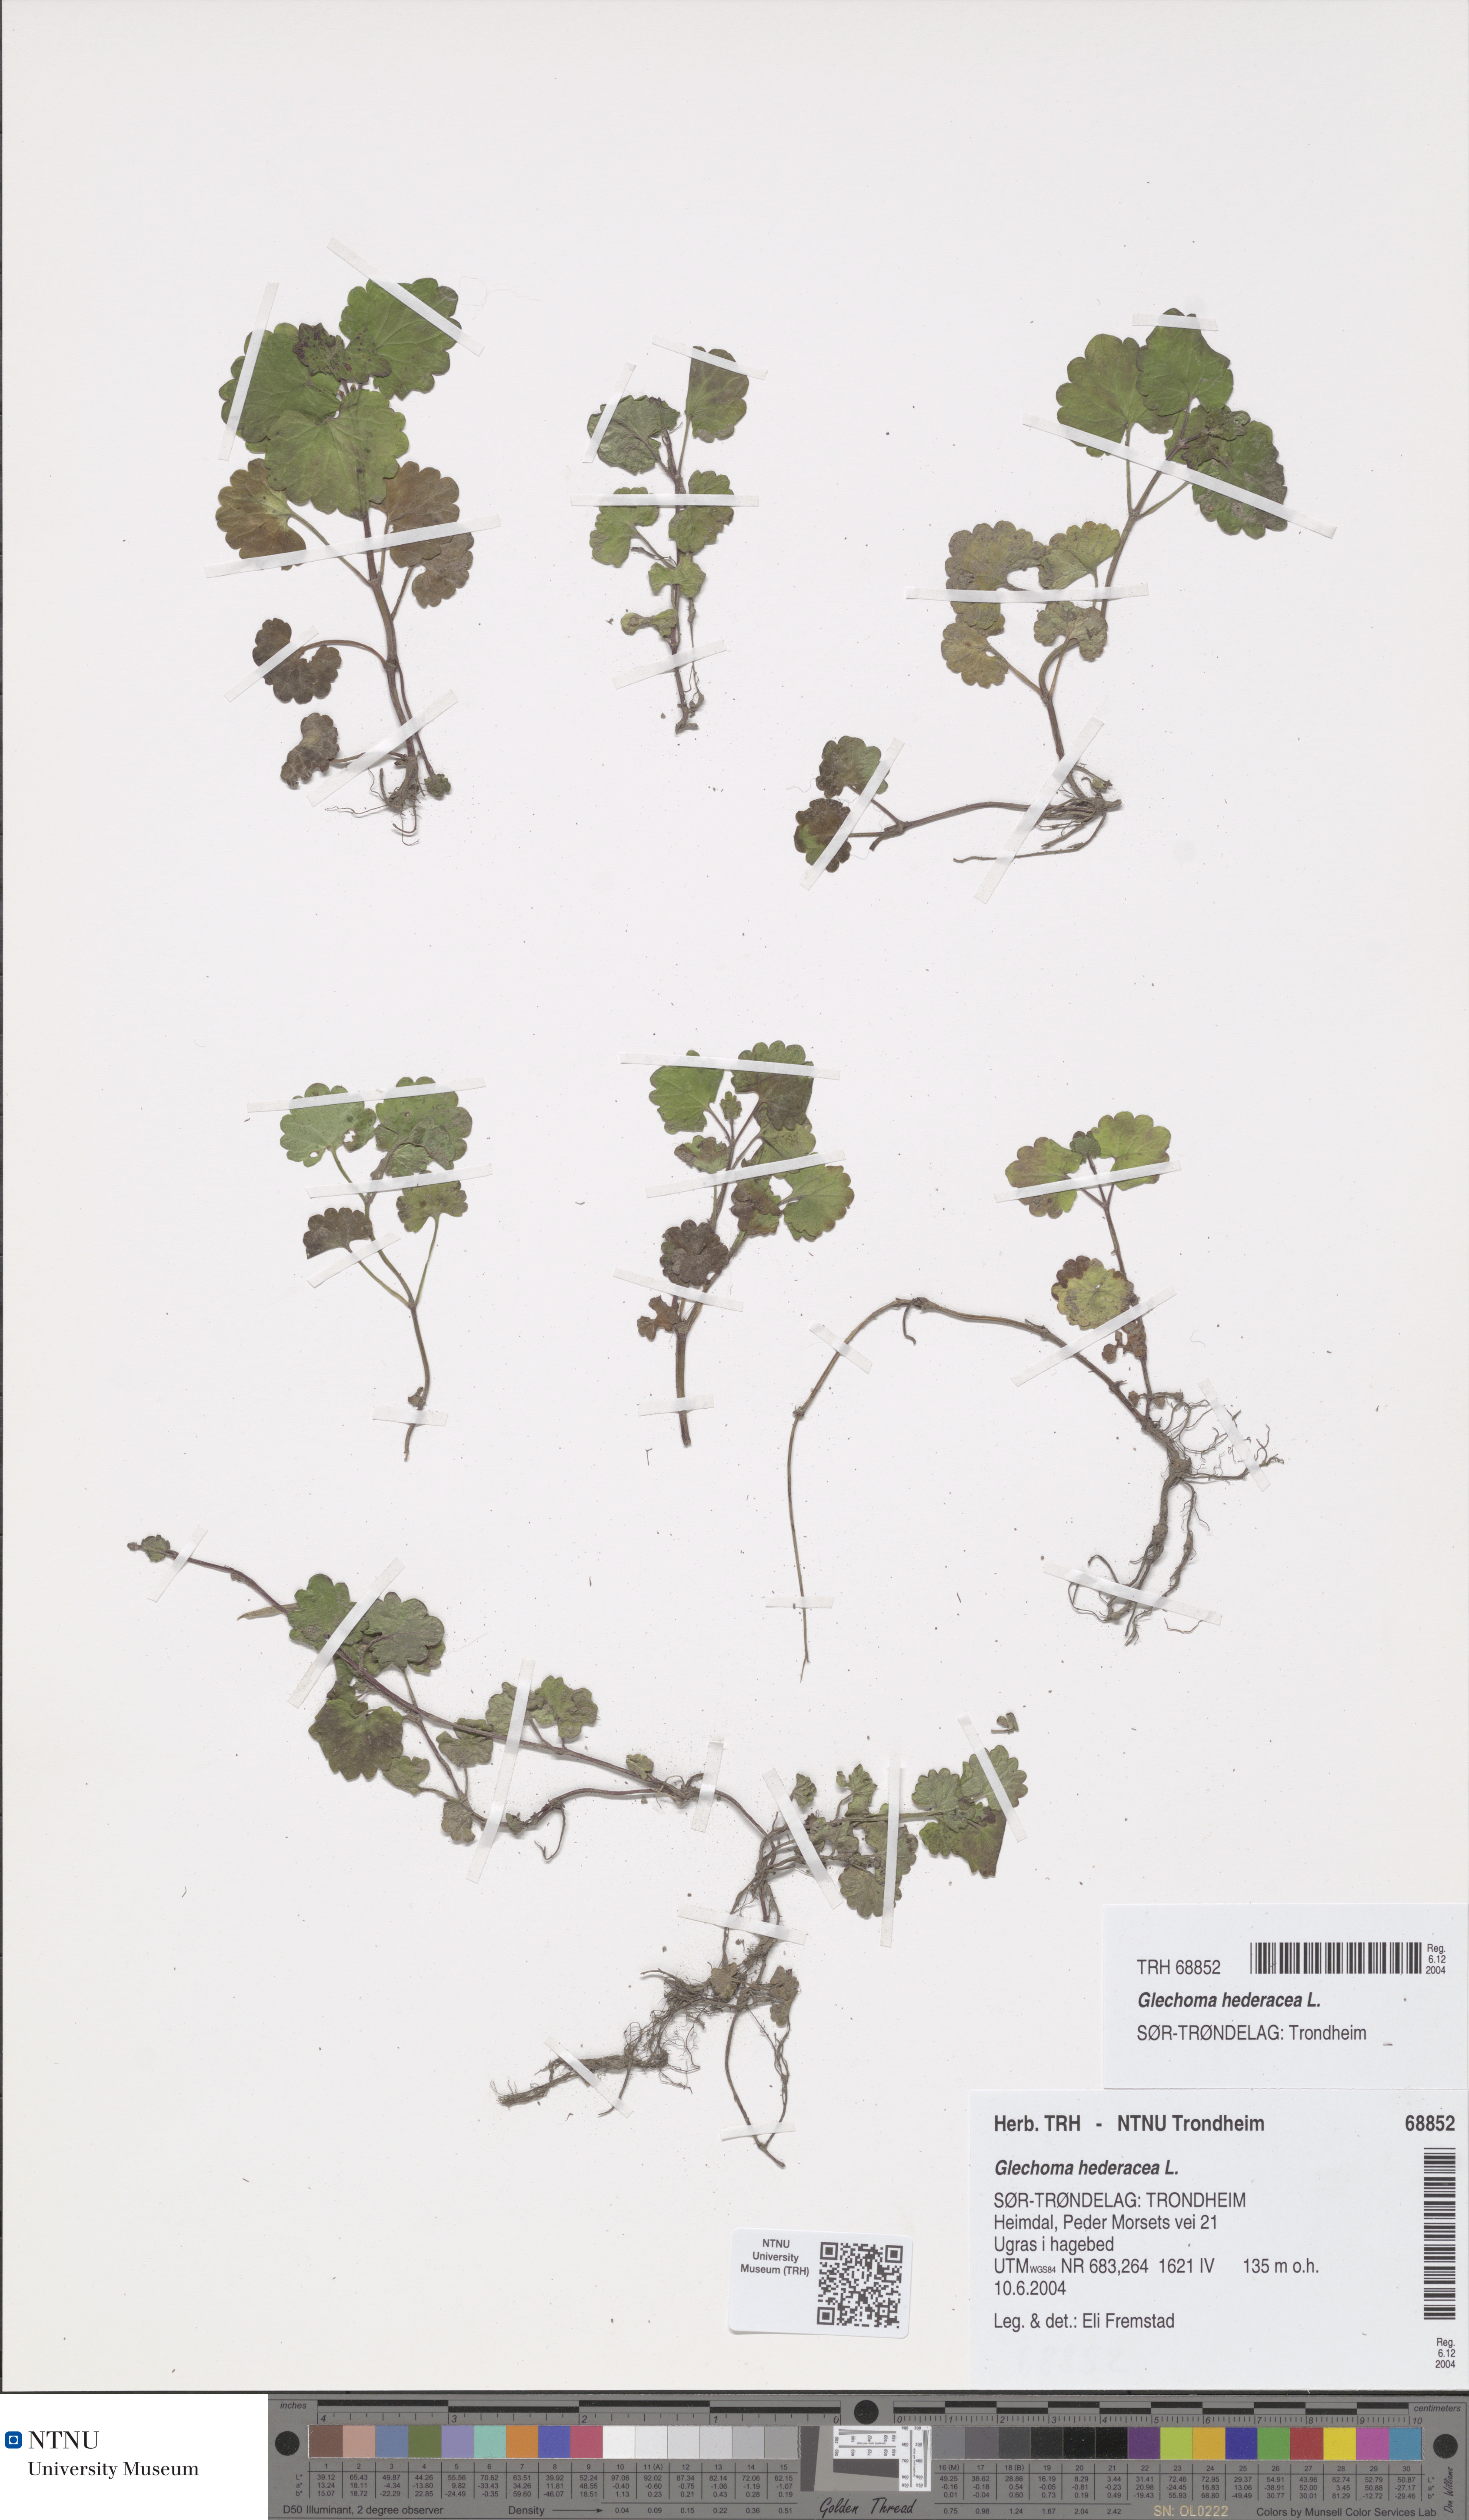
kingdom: Plantae
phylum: Tracheophyta
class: Magnoliopsida
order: Lamiales
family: Lamiaceae
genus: Glechoma
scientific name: Glechoma hederacea
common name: Ground ivy
